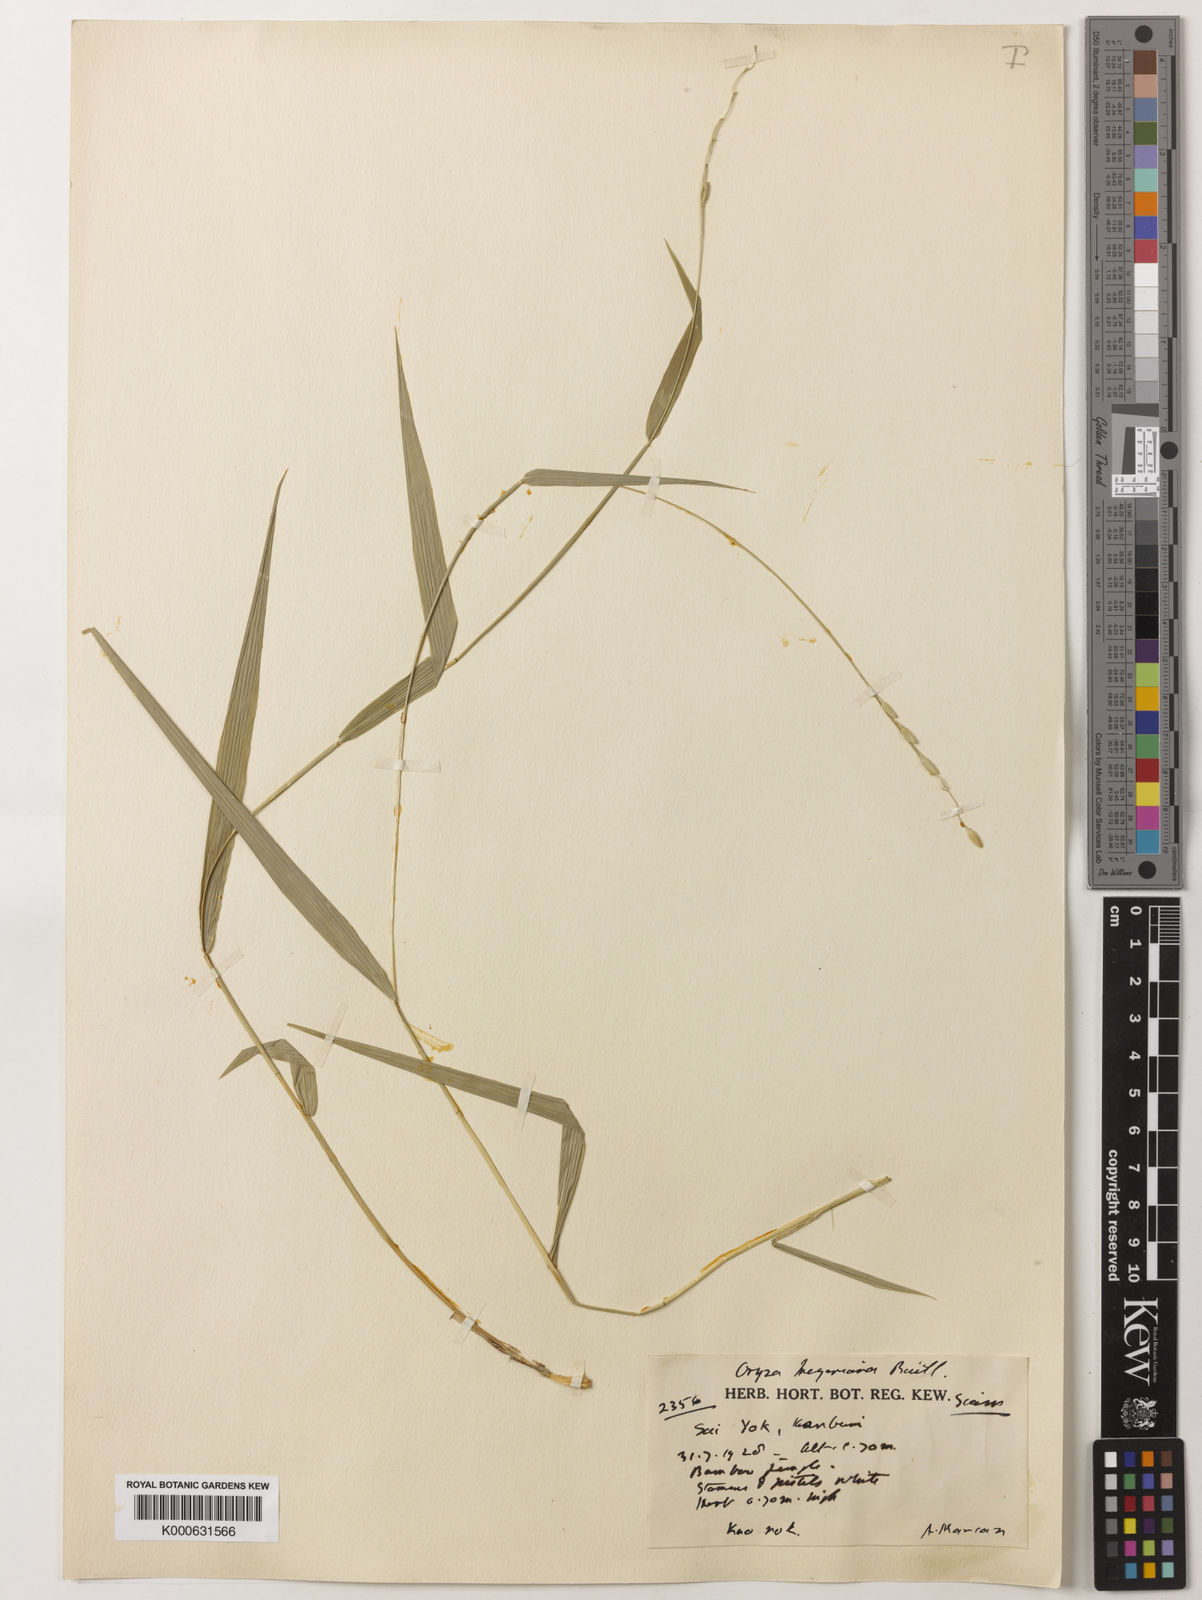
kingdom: Plantae
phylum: Tracheophyta
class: Liliopsida
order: Poales
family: Poaceae
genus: Oryza
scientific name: Oryza meyeriana
